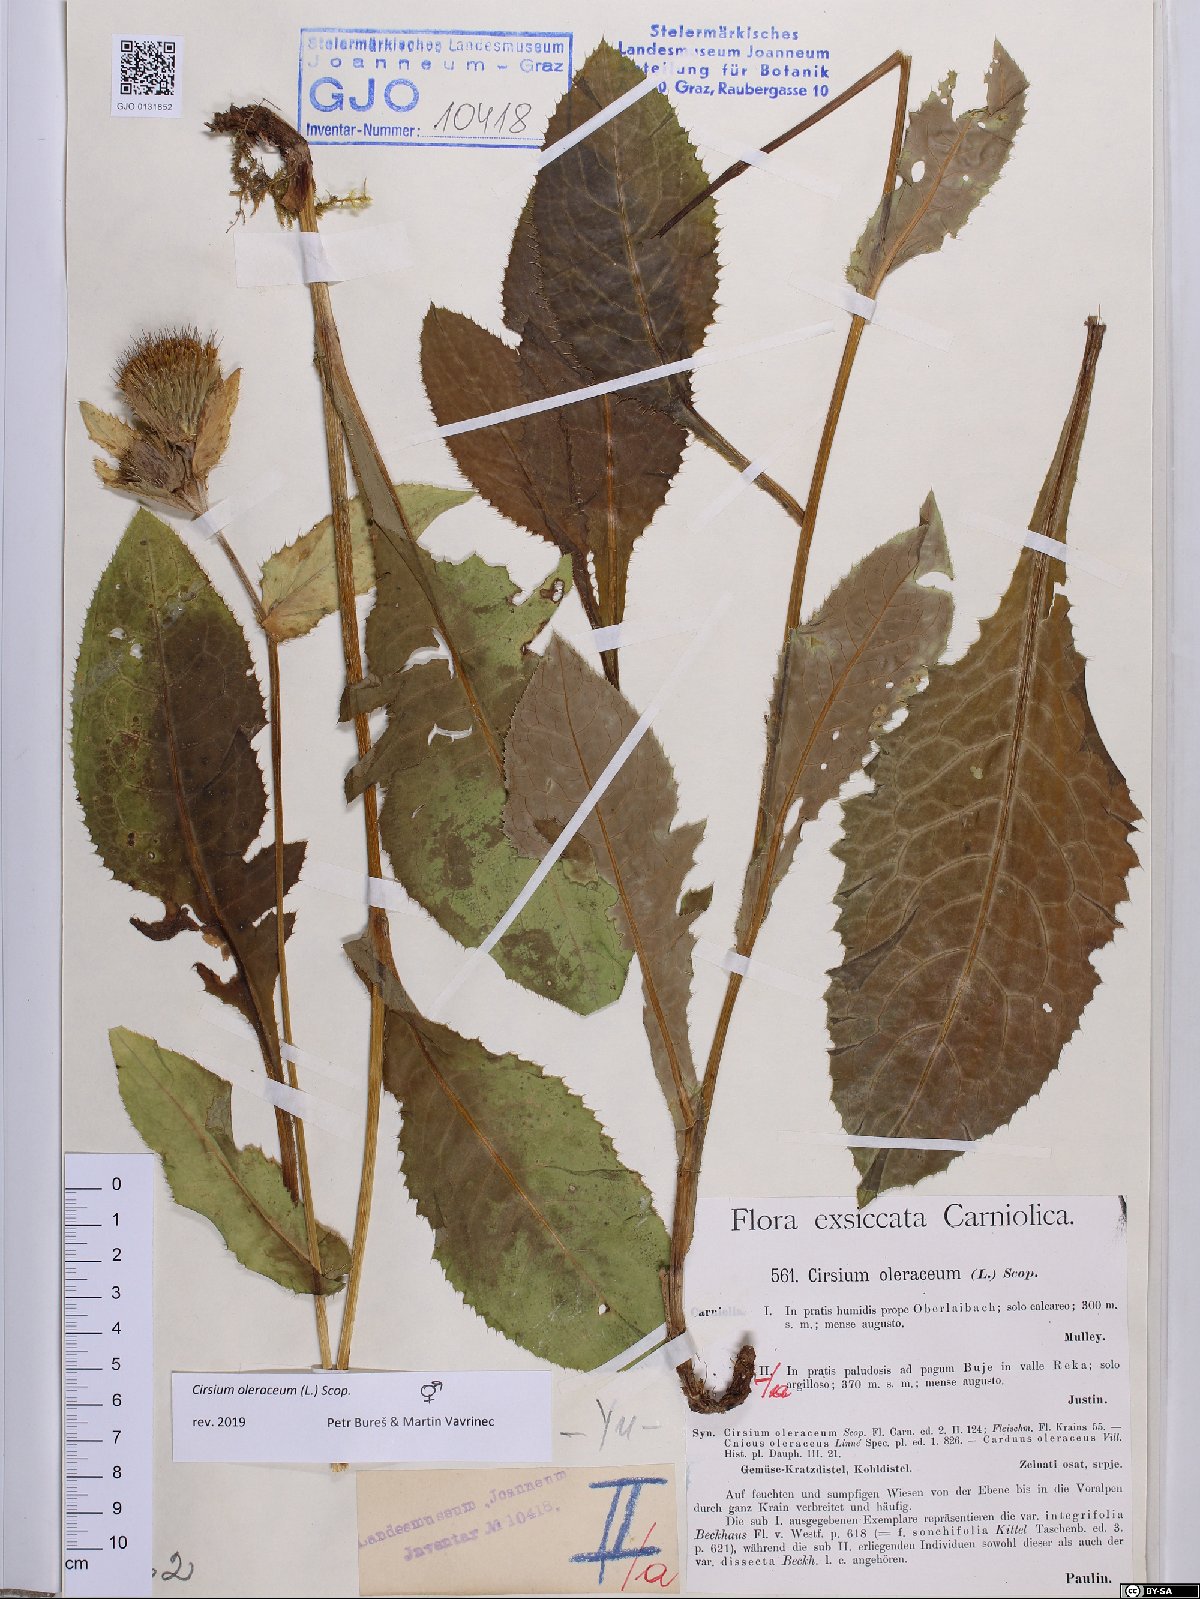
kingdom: Plantae
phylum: Tracheophyta
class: Magnoliopsida
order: Asterales
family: Asteraceae
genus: Cirsium
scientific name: Cirsium oleraceum
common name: Cabbage thistle
